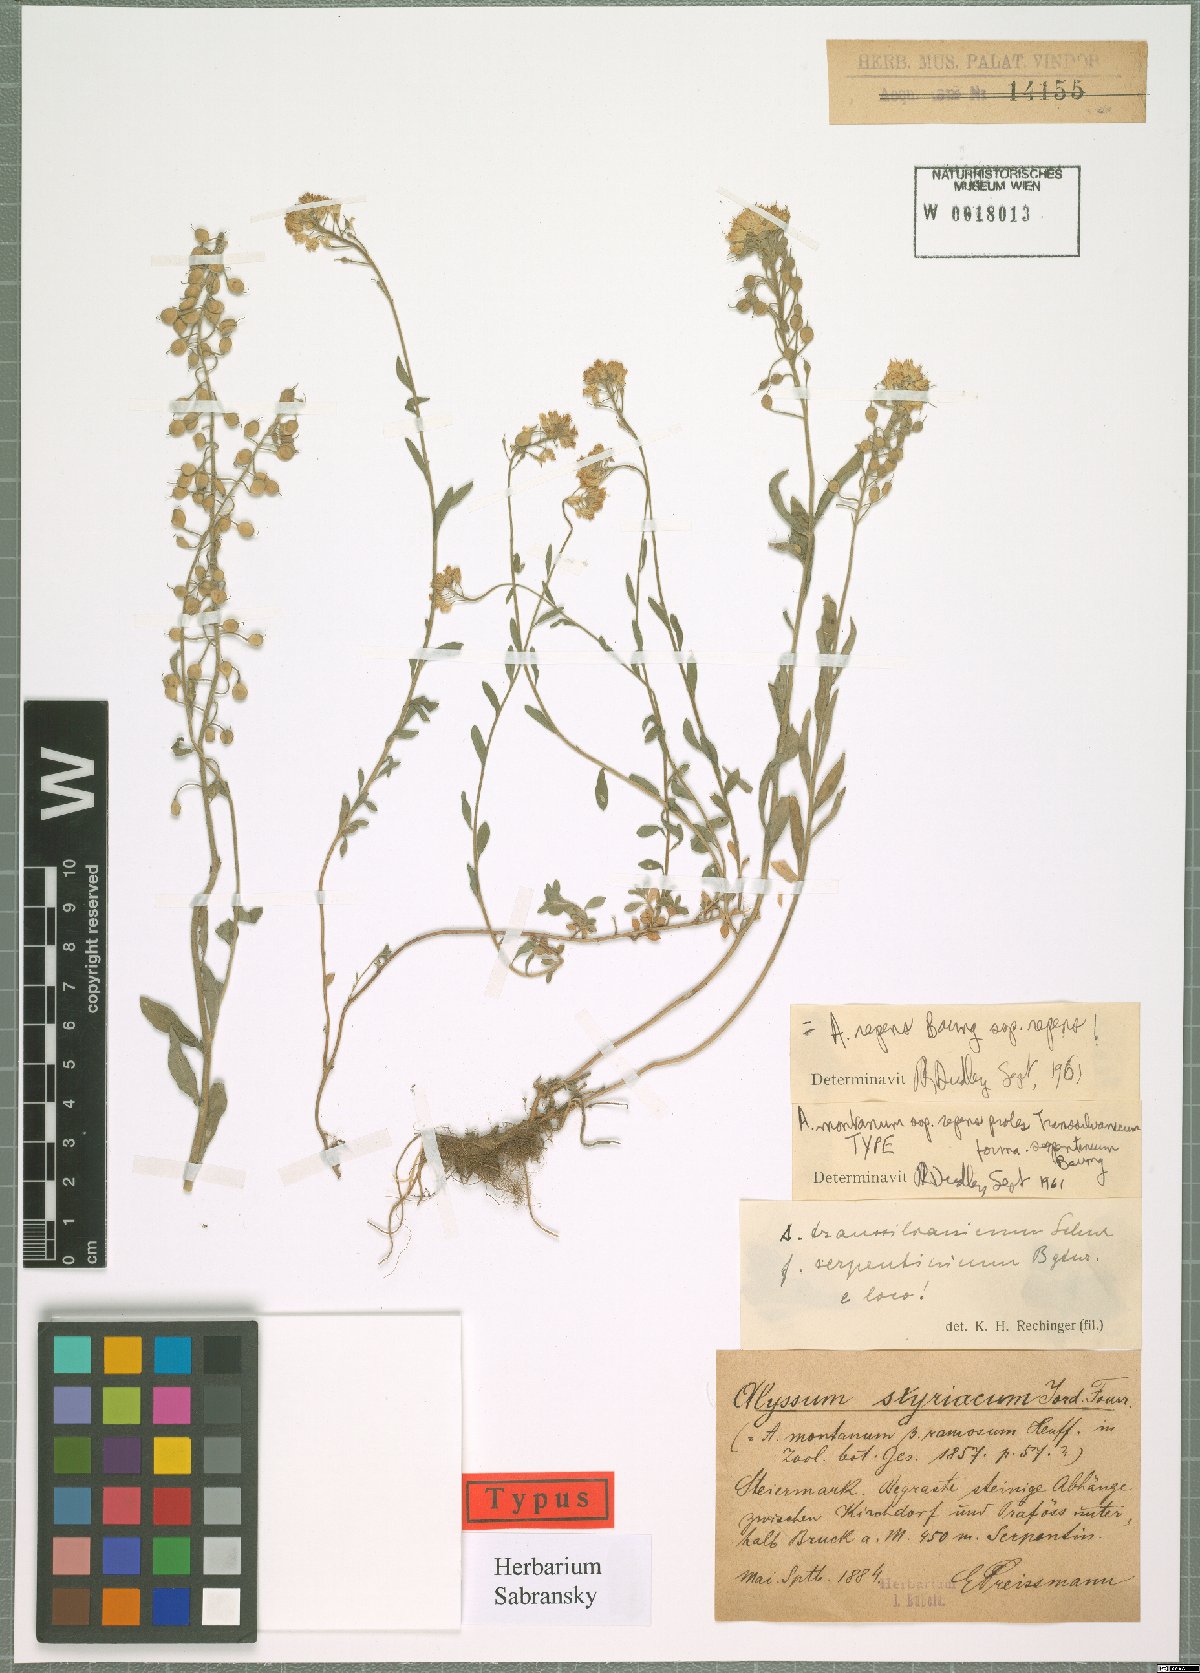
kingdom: Plantae
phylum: Tracheophyta
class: Magnoliopsida
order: Brassicales
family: Brassicaceae
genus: Alyssum
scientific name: Alyssum repens
